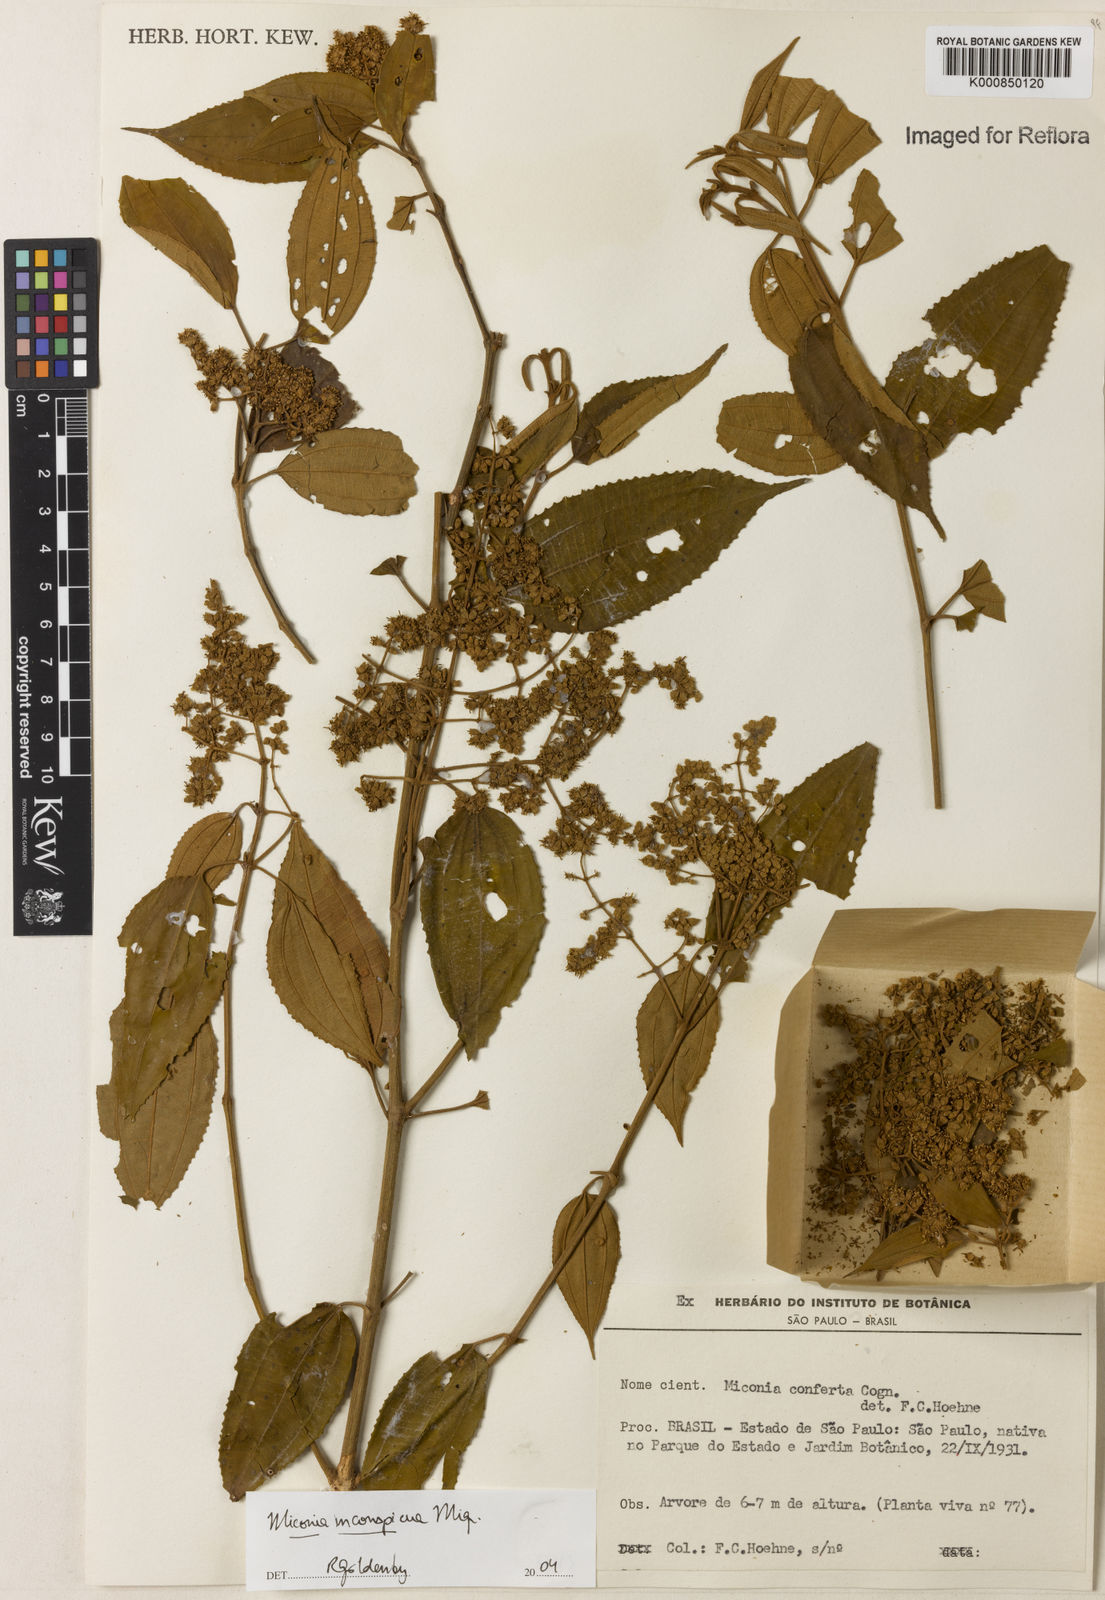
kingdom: Plantae
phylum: Tracheophyta
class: Magnoliopsida
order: Myrtales
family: Melastomataceae
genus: Miconia
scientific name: Miconia inconspicua
